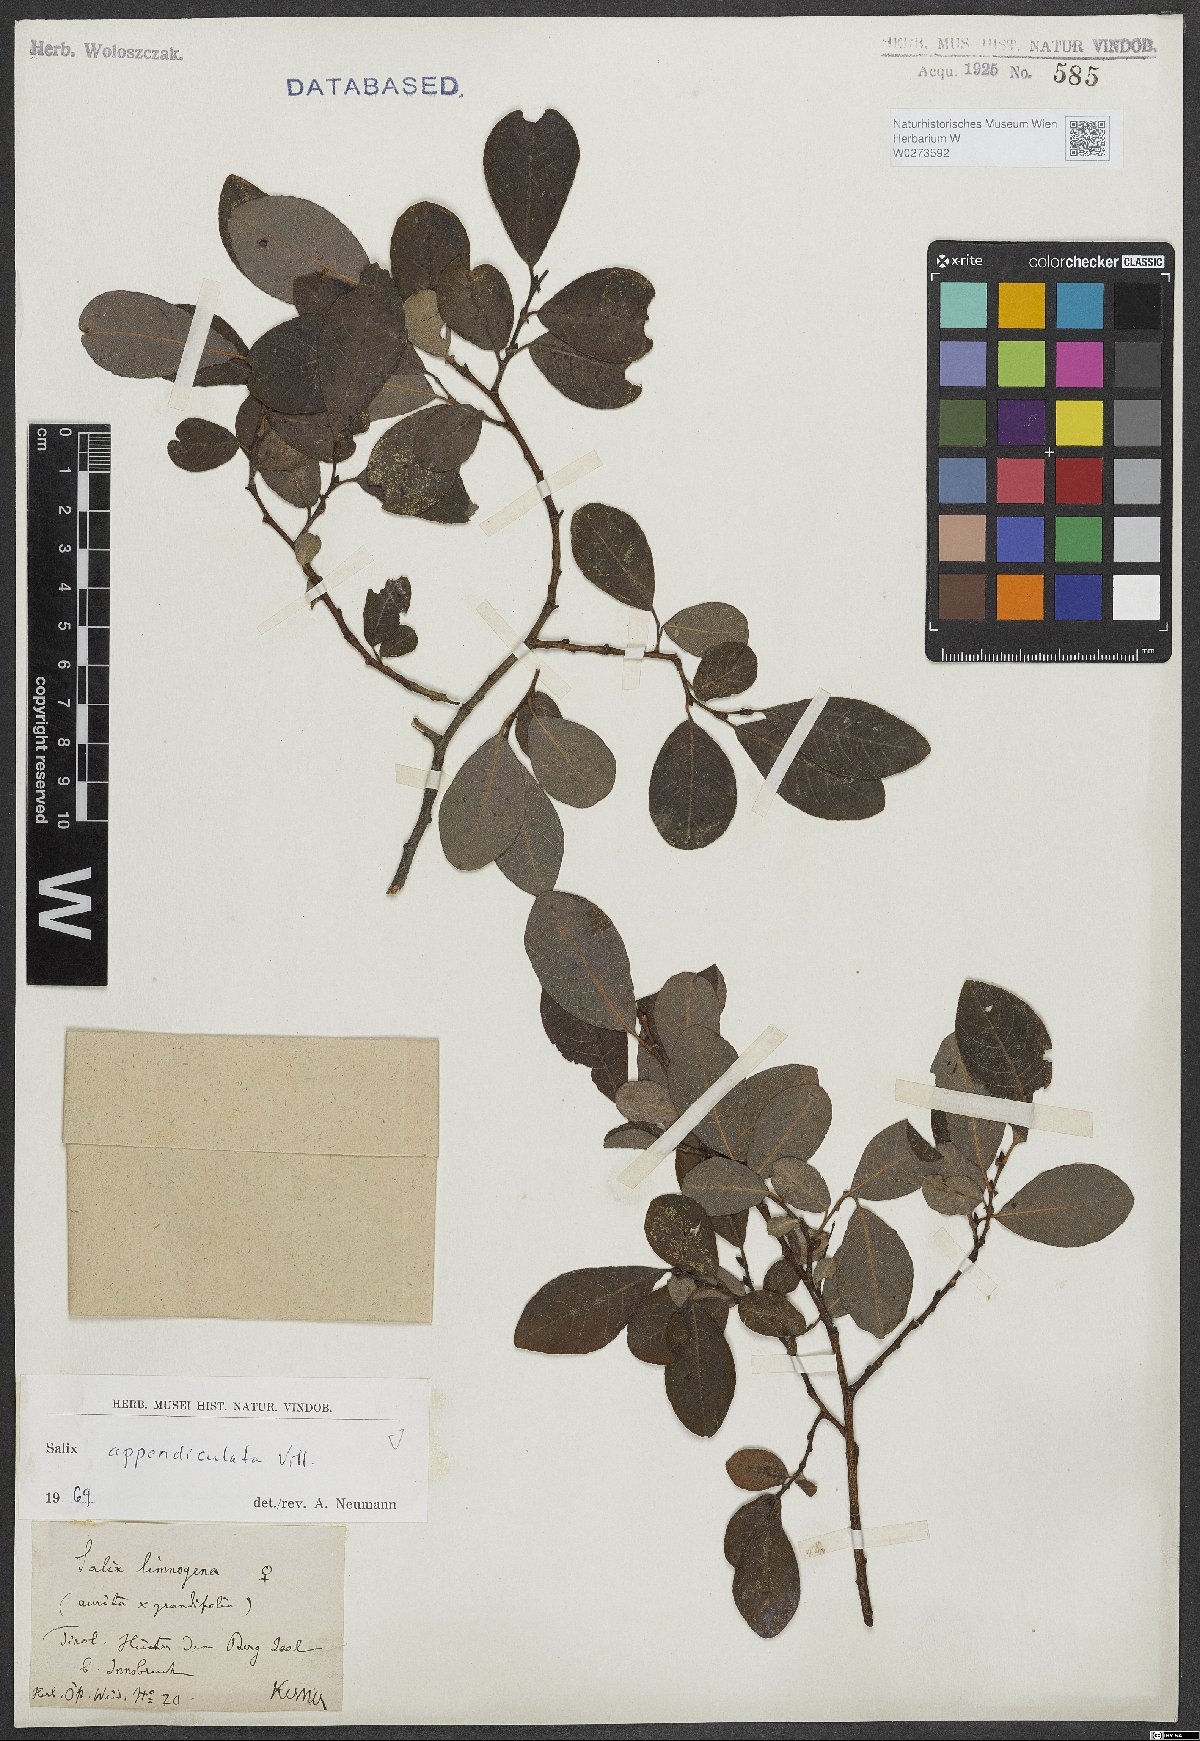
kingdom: Plantae
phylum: Tracheophyta
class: Magnoliopsida
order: Malpighiales
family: Salicaceae
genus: Salix
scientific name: Salix appendiculata
